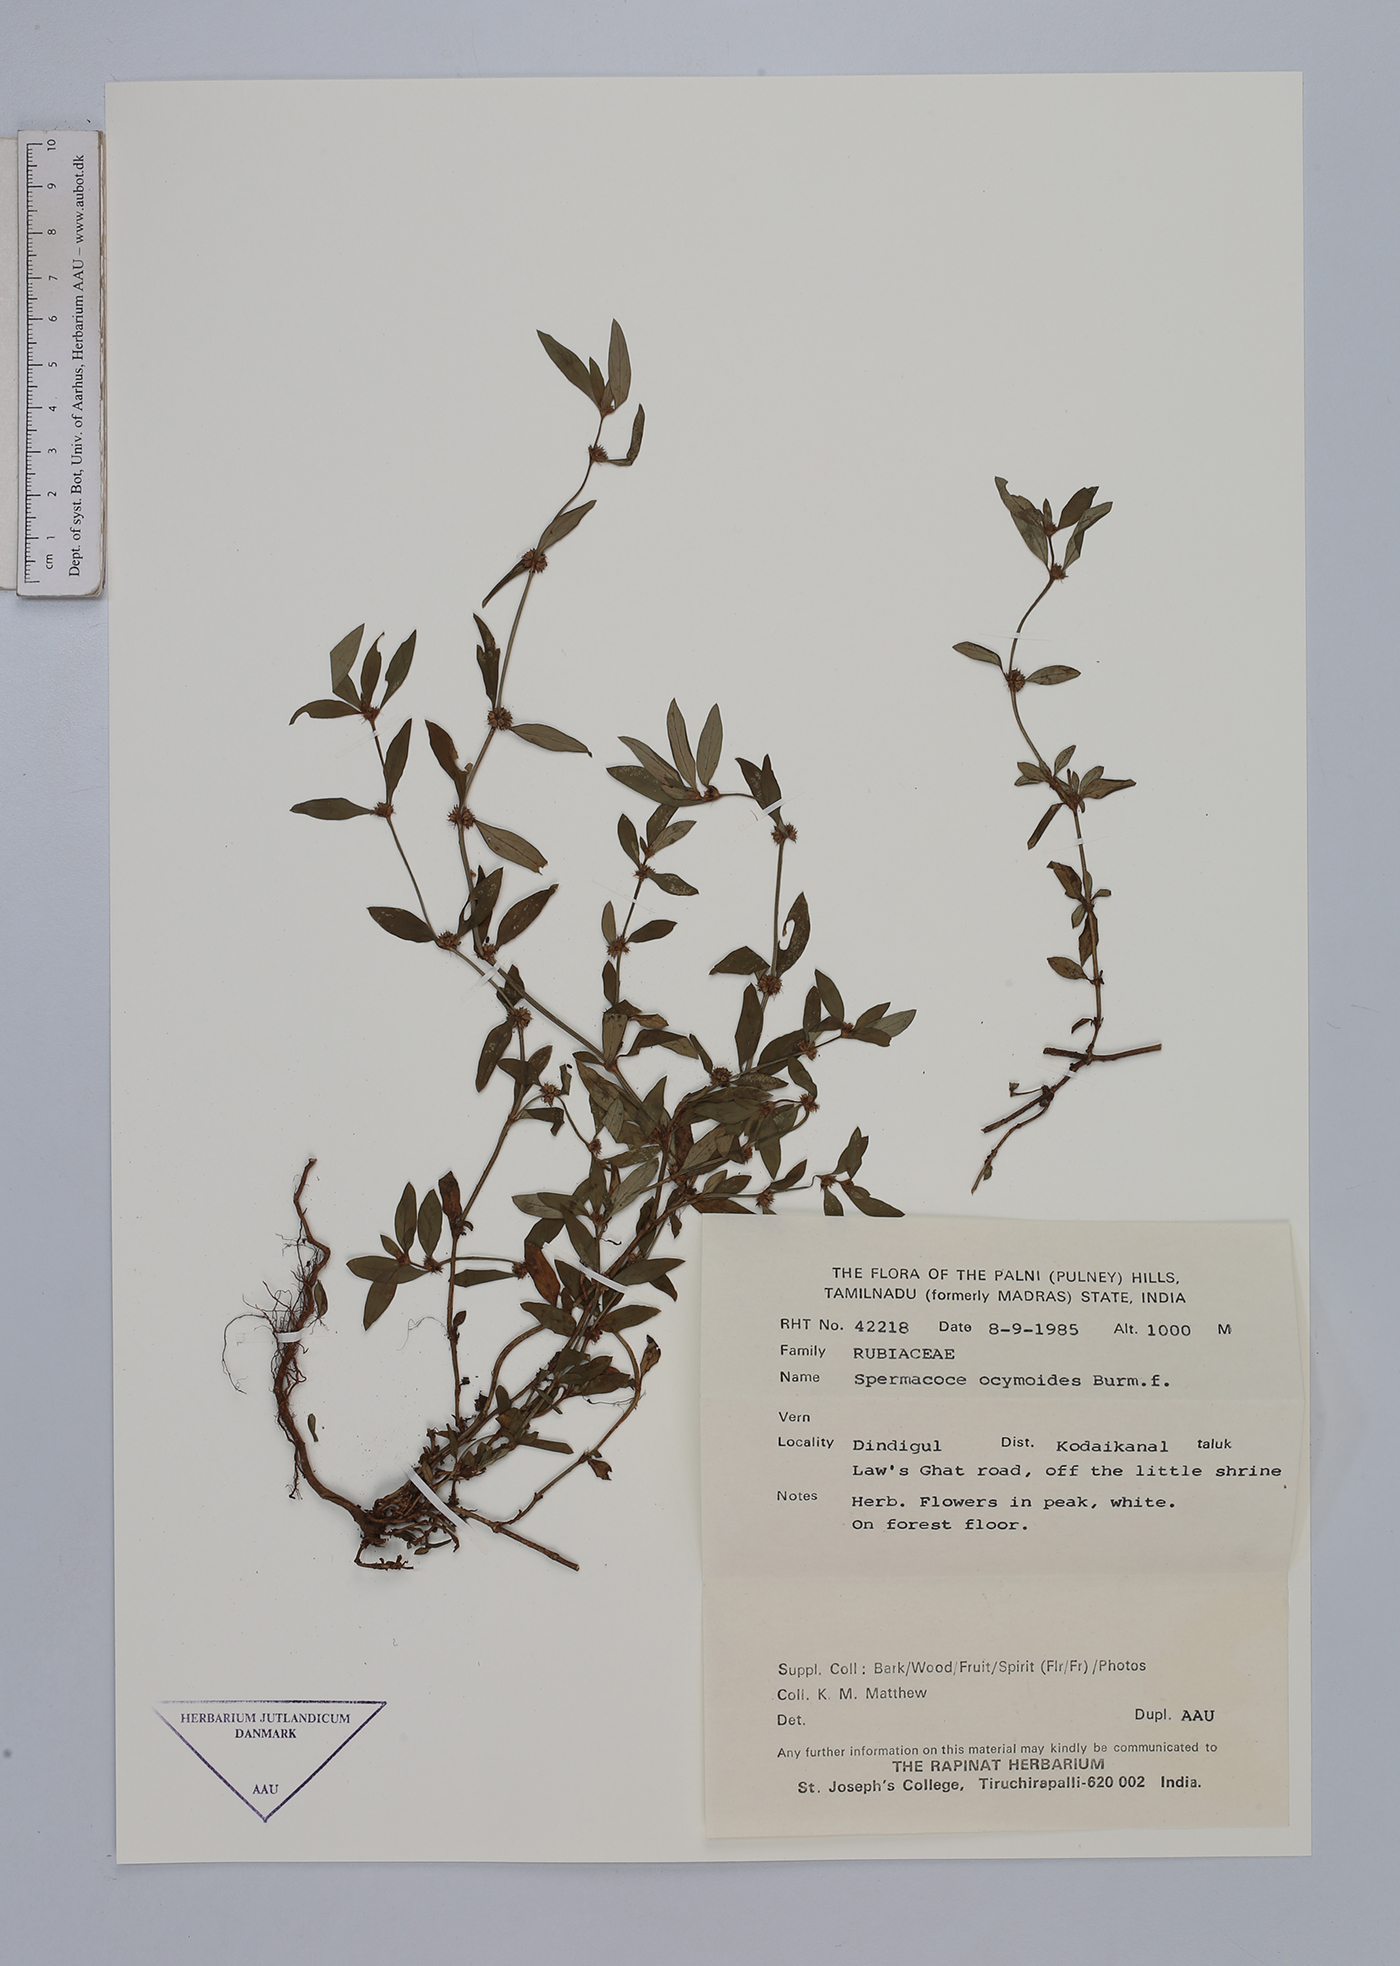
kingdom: Plantae
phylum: Tracheophyta
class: Magnoliopsida
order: Gentianales
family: Rubiaceae
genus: Spermacoce
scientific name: Spermacoce ocymoides
